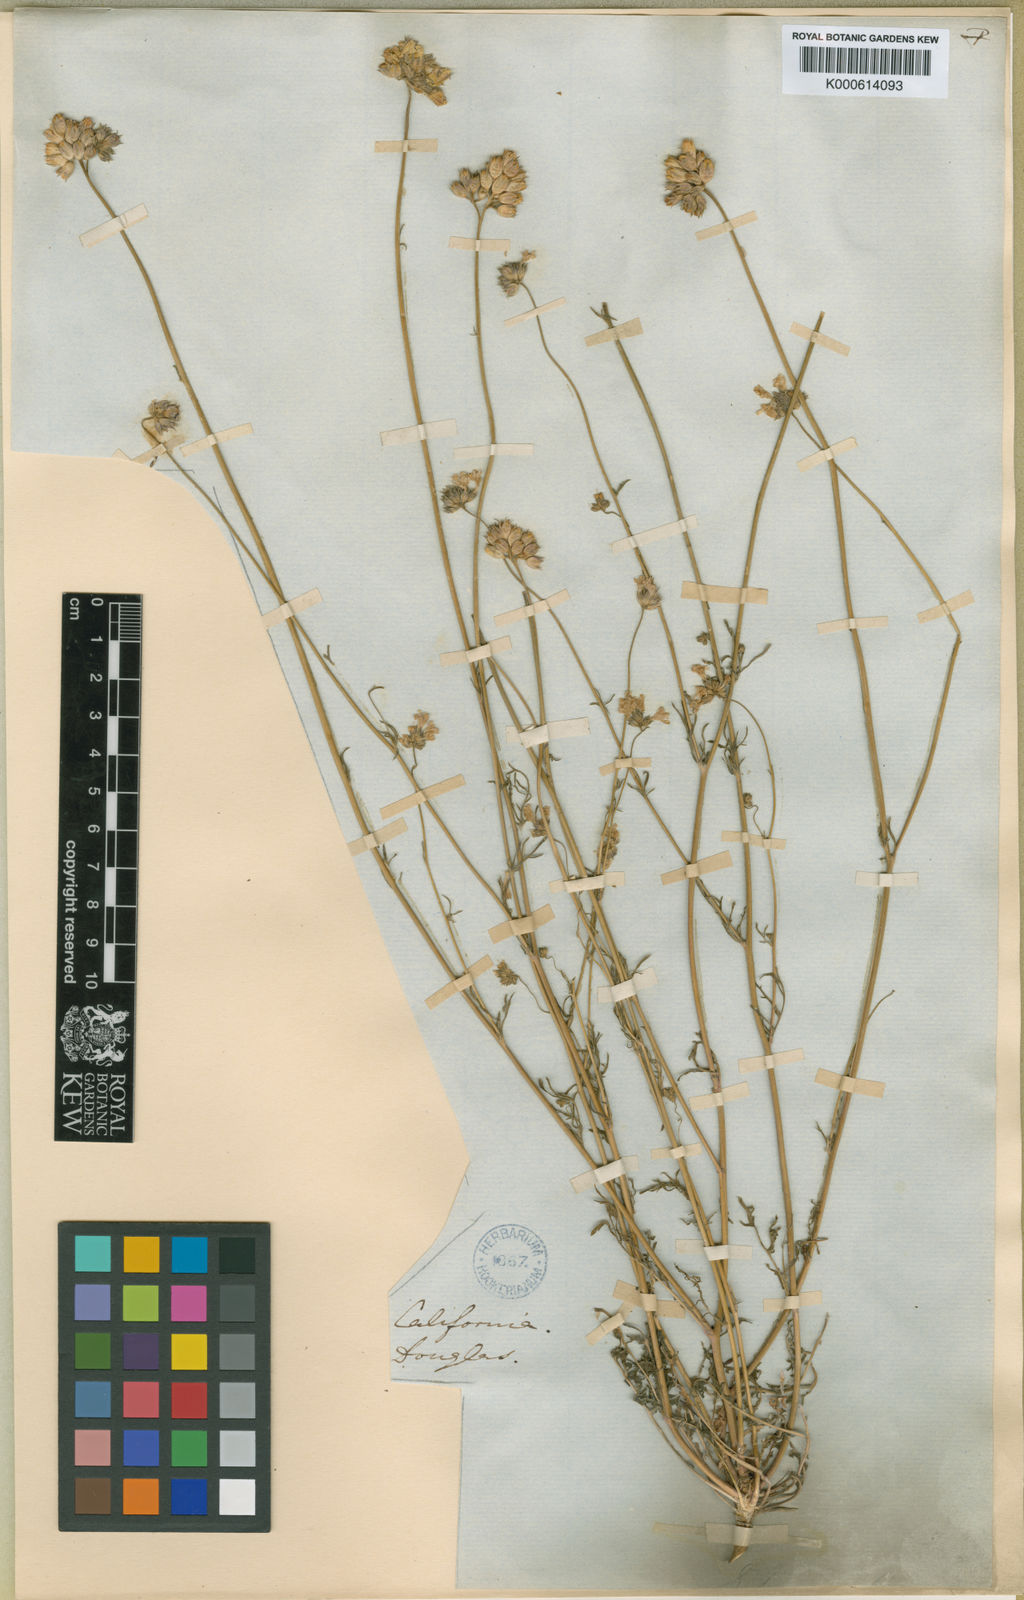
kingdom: Plantae
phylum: Tracheophyta
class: Magnoliopsida
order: Ericales
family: Polemoniaceae
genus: Gilia
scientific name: Gilia achilleifolia
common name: California gily-flower
